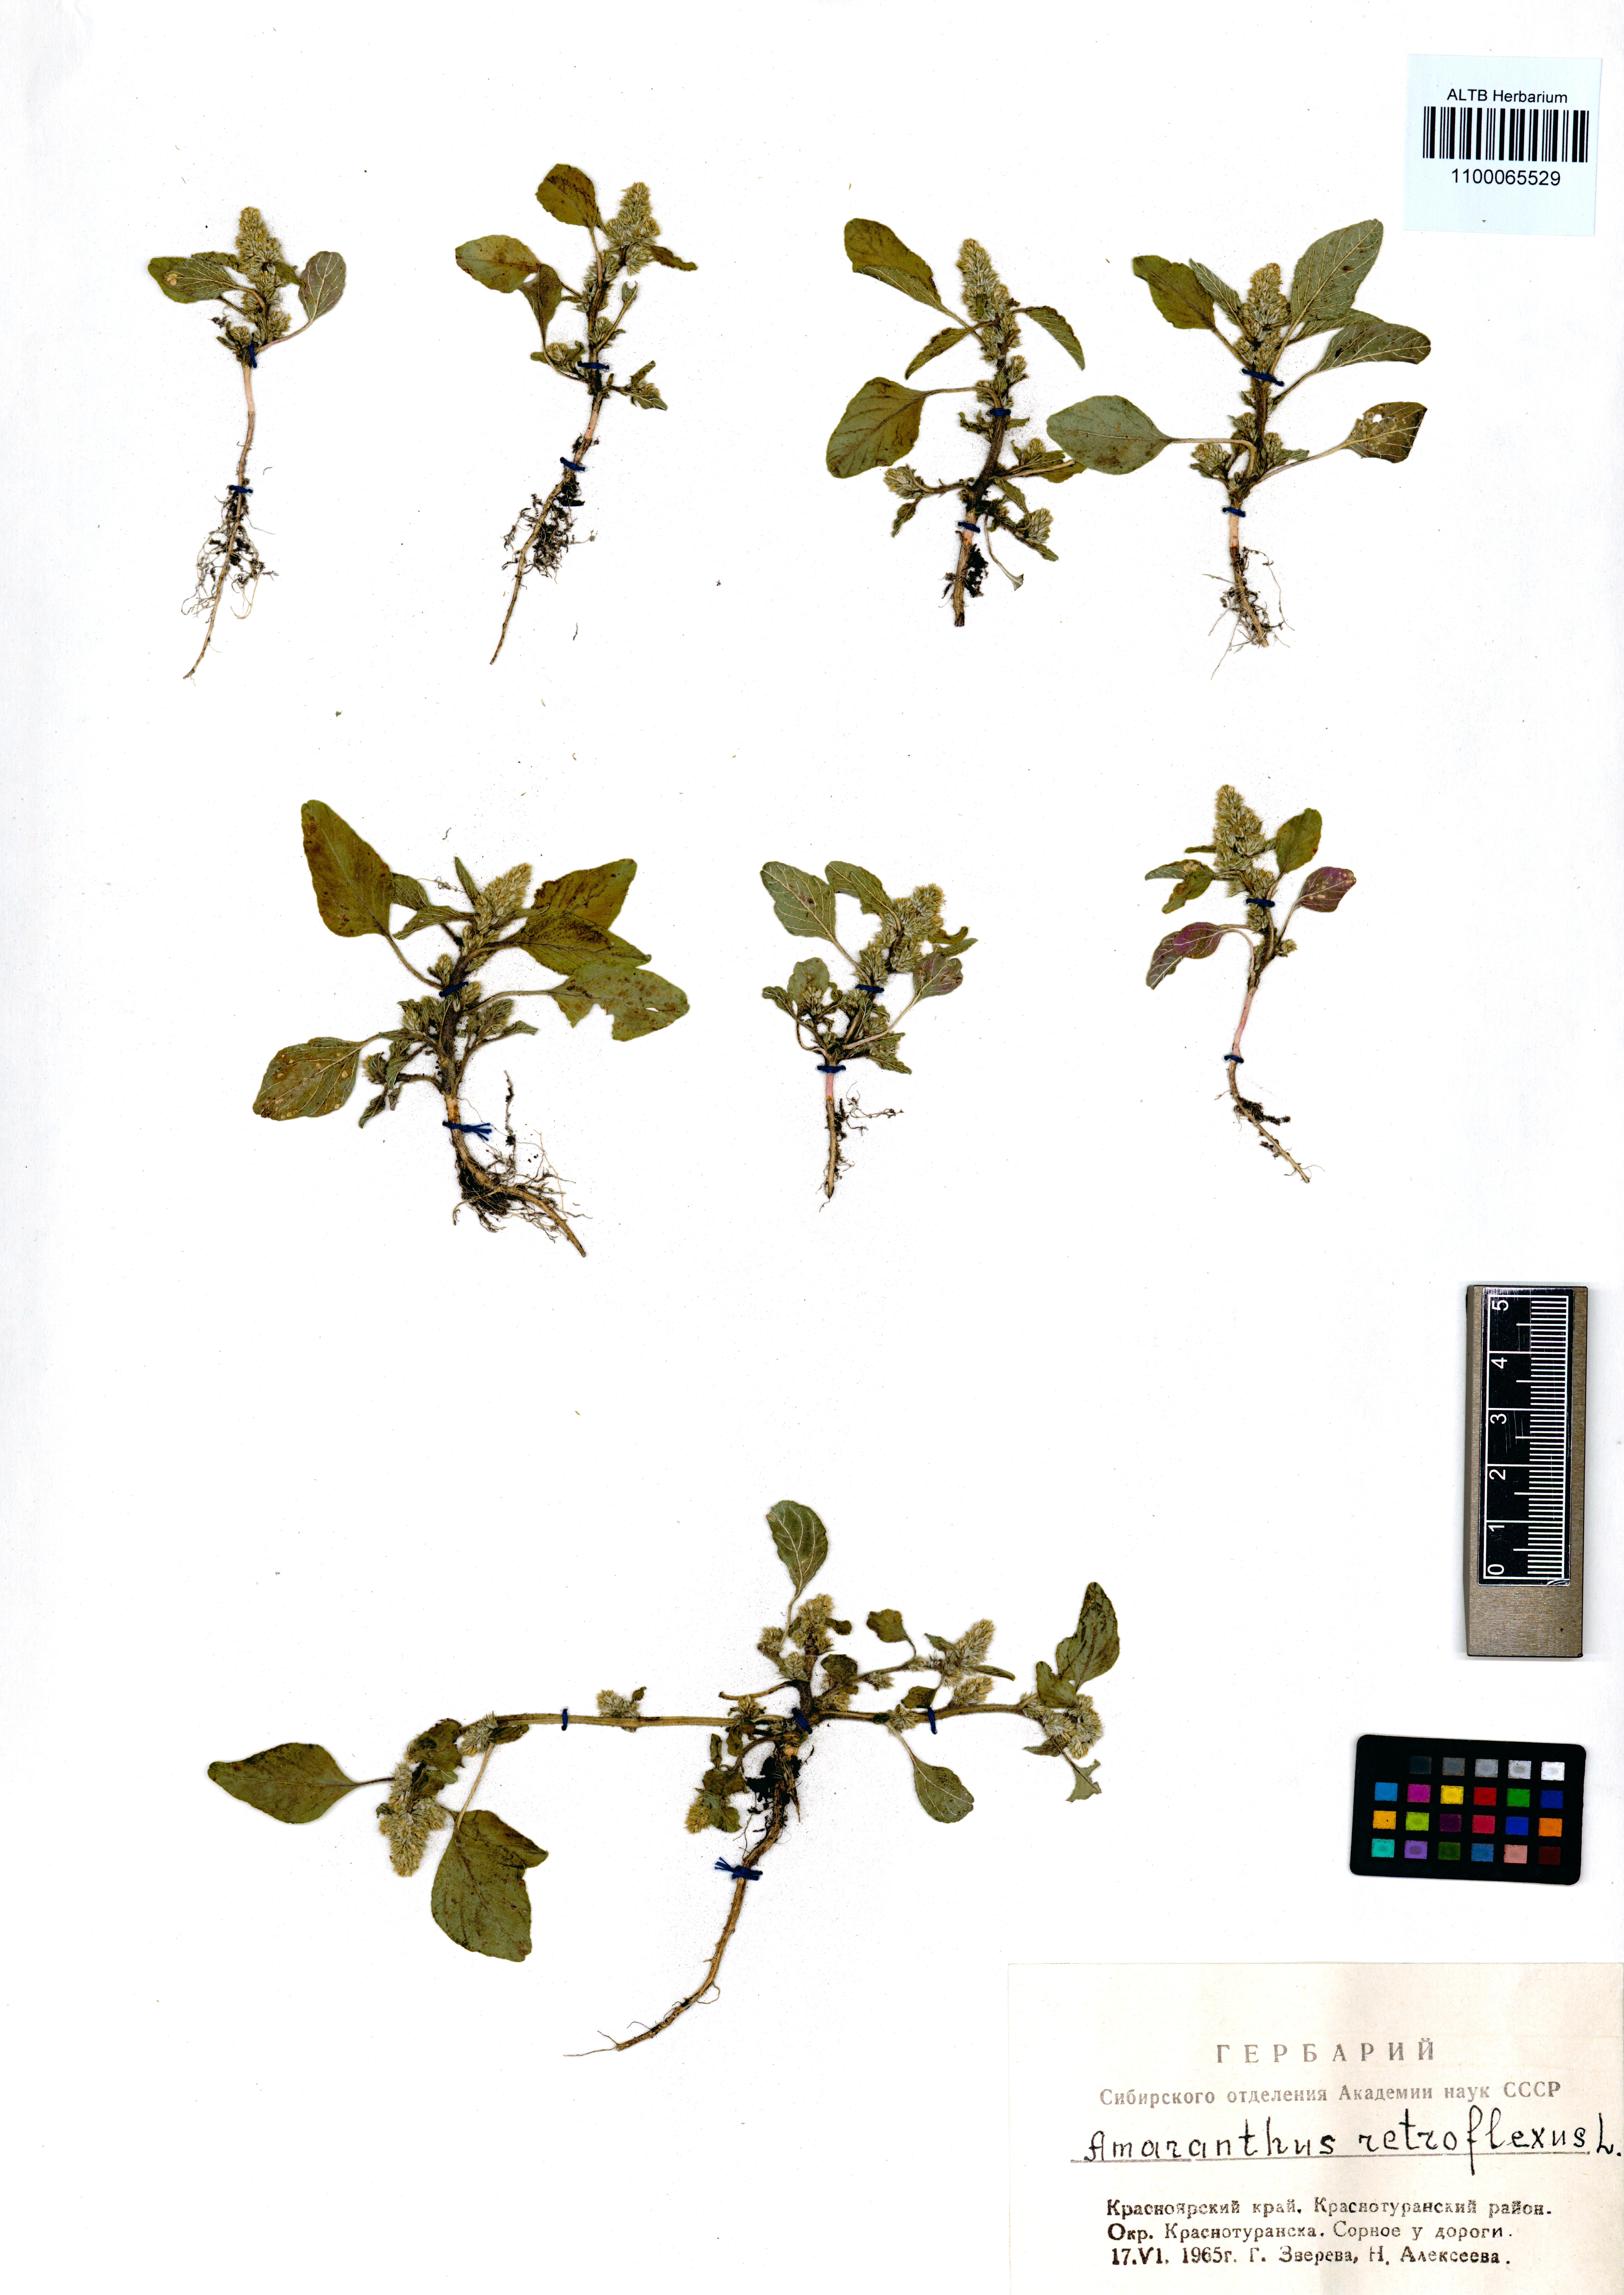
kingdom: Plantae
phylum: Tracheophyta
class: Magnoliopsida
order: Caryophyllales
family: Amaranthaceae
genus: Amaranthus
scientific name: Amaranthus retroflexus
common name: Redroot amaranth
